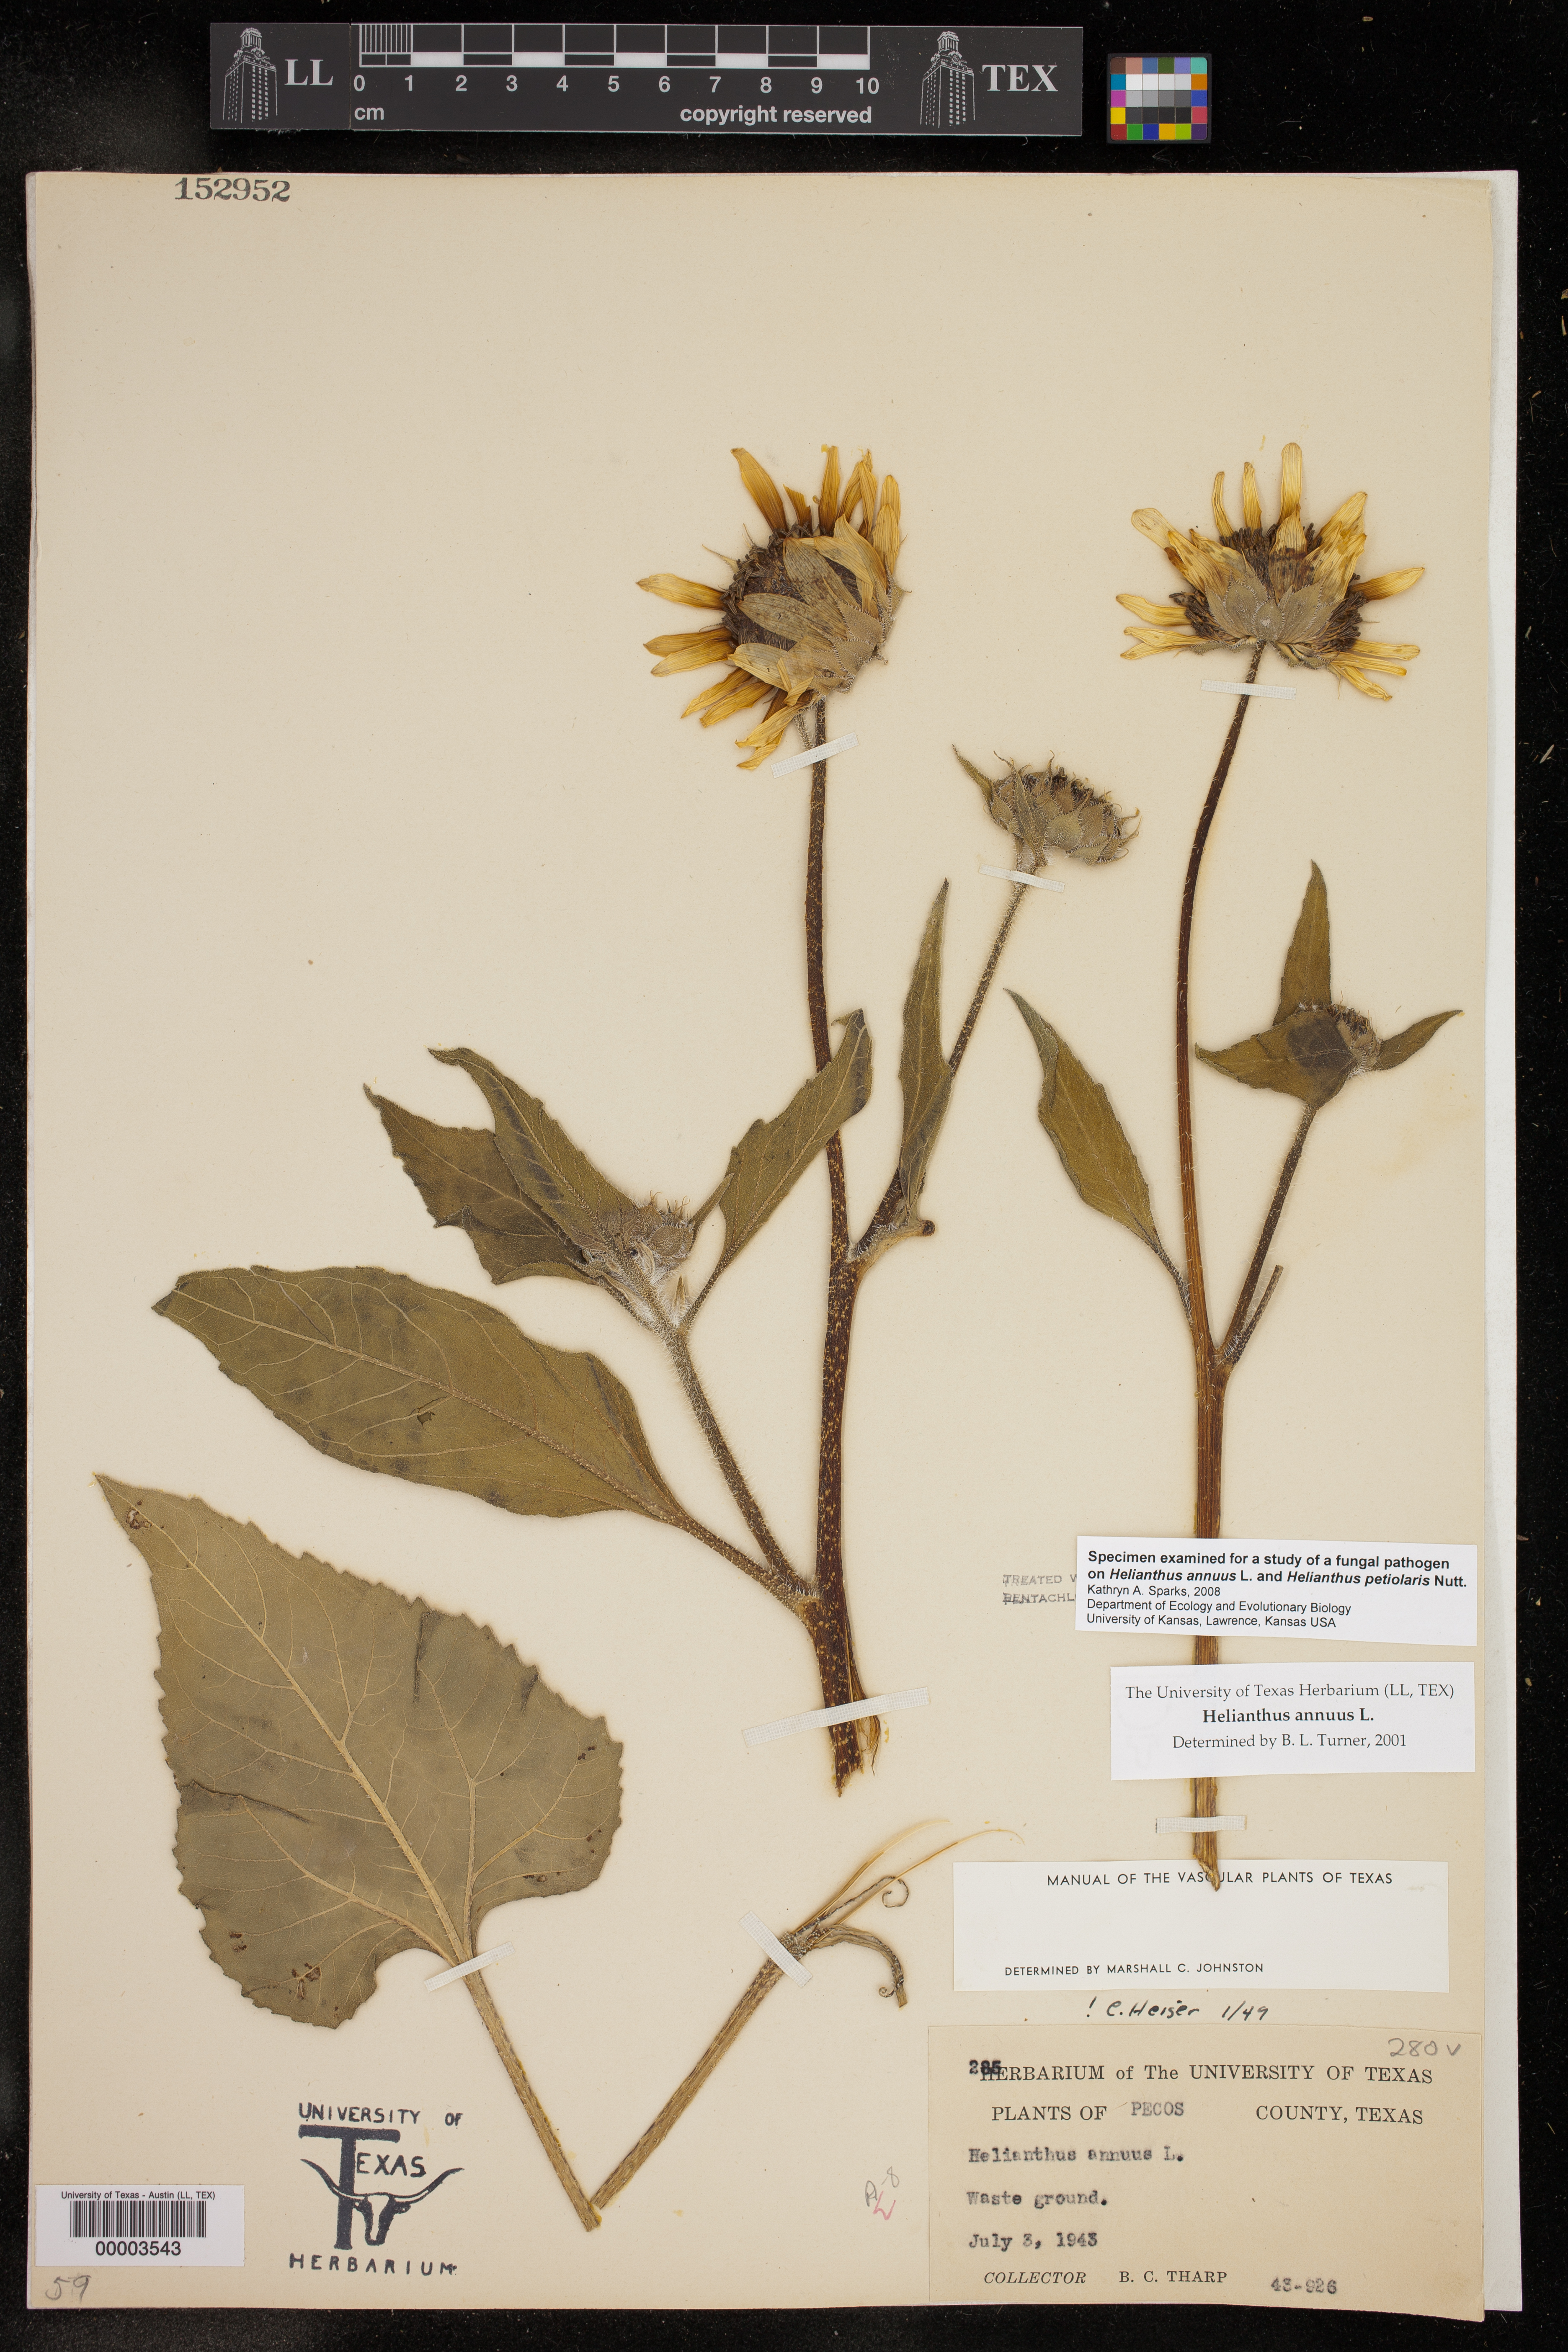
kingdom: Plantae
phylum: Tracheophyta
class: Magnoliopsida
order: Asterales
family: Asteraceae
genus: Helianthus
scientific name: Helianthus annuus
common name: Sunflower
